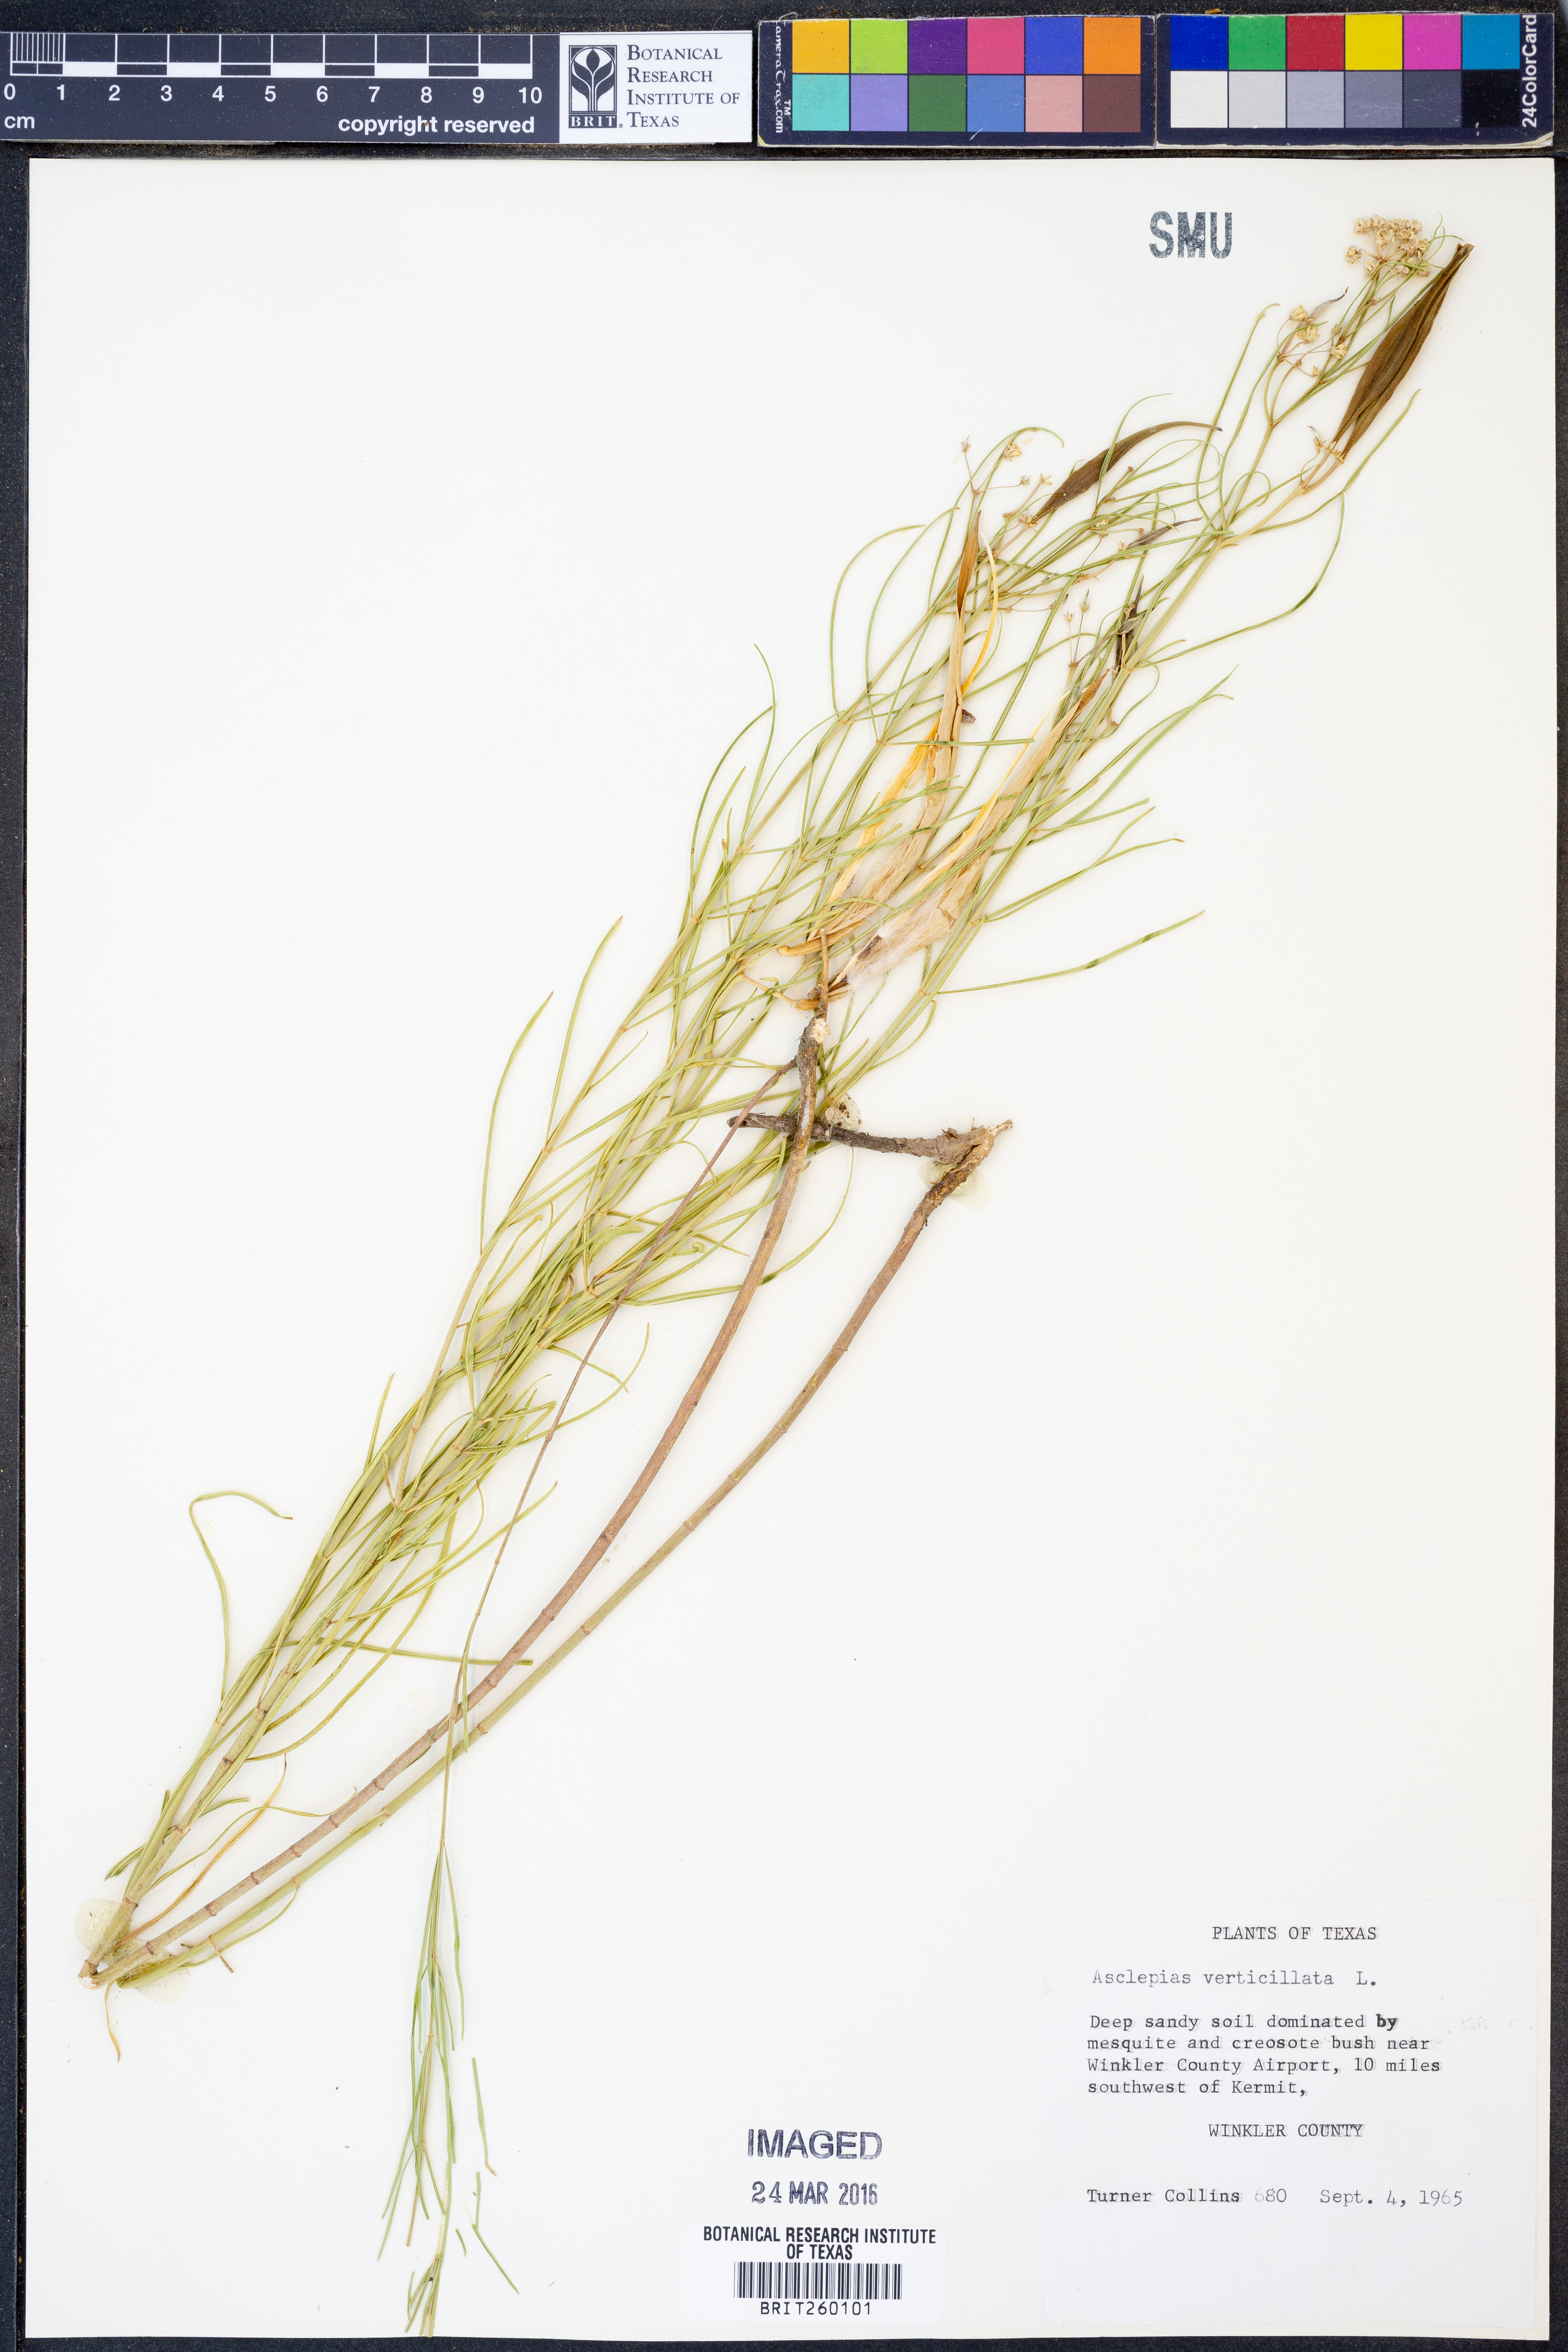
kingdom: Plantae
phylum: Tracheophyta
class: Magnoliopsida
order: Gentianales
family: Apocynaceae
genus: Asclepias
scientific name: Asclepias subverticillata
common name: Horsetail milkweed
